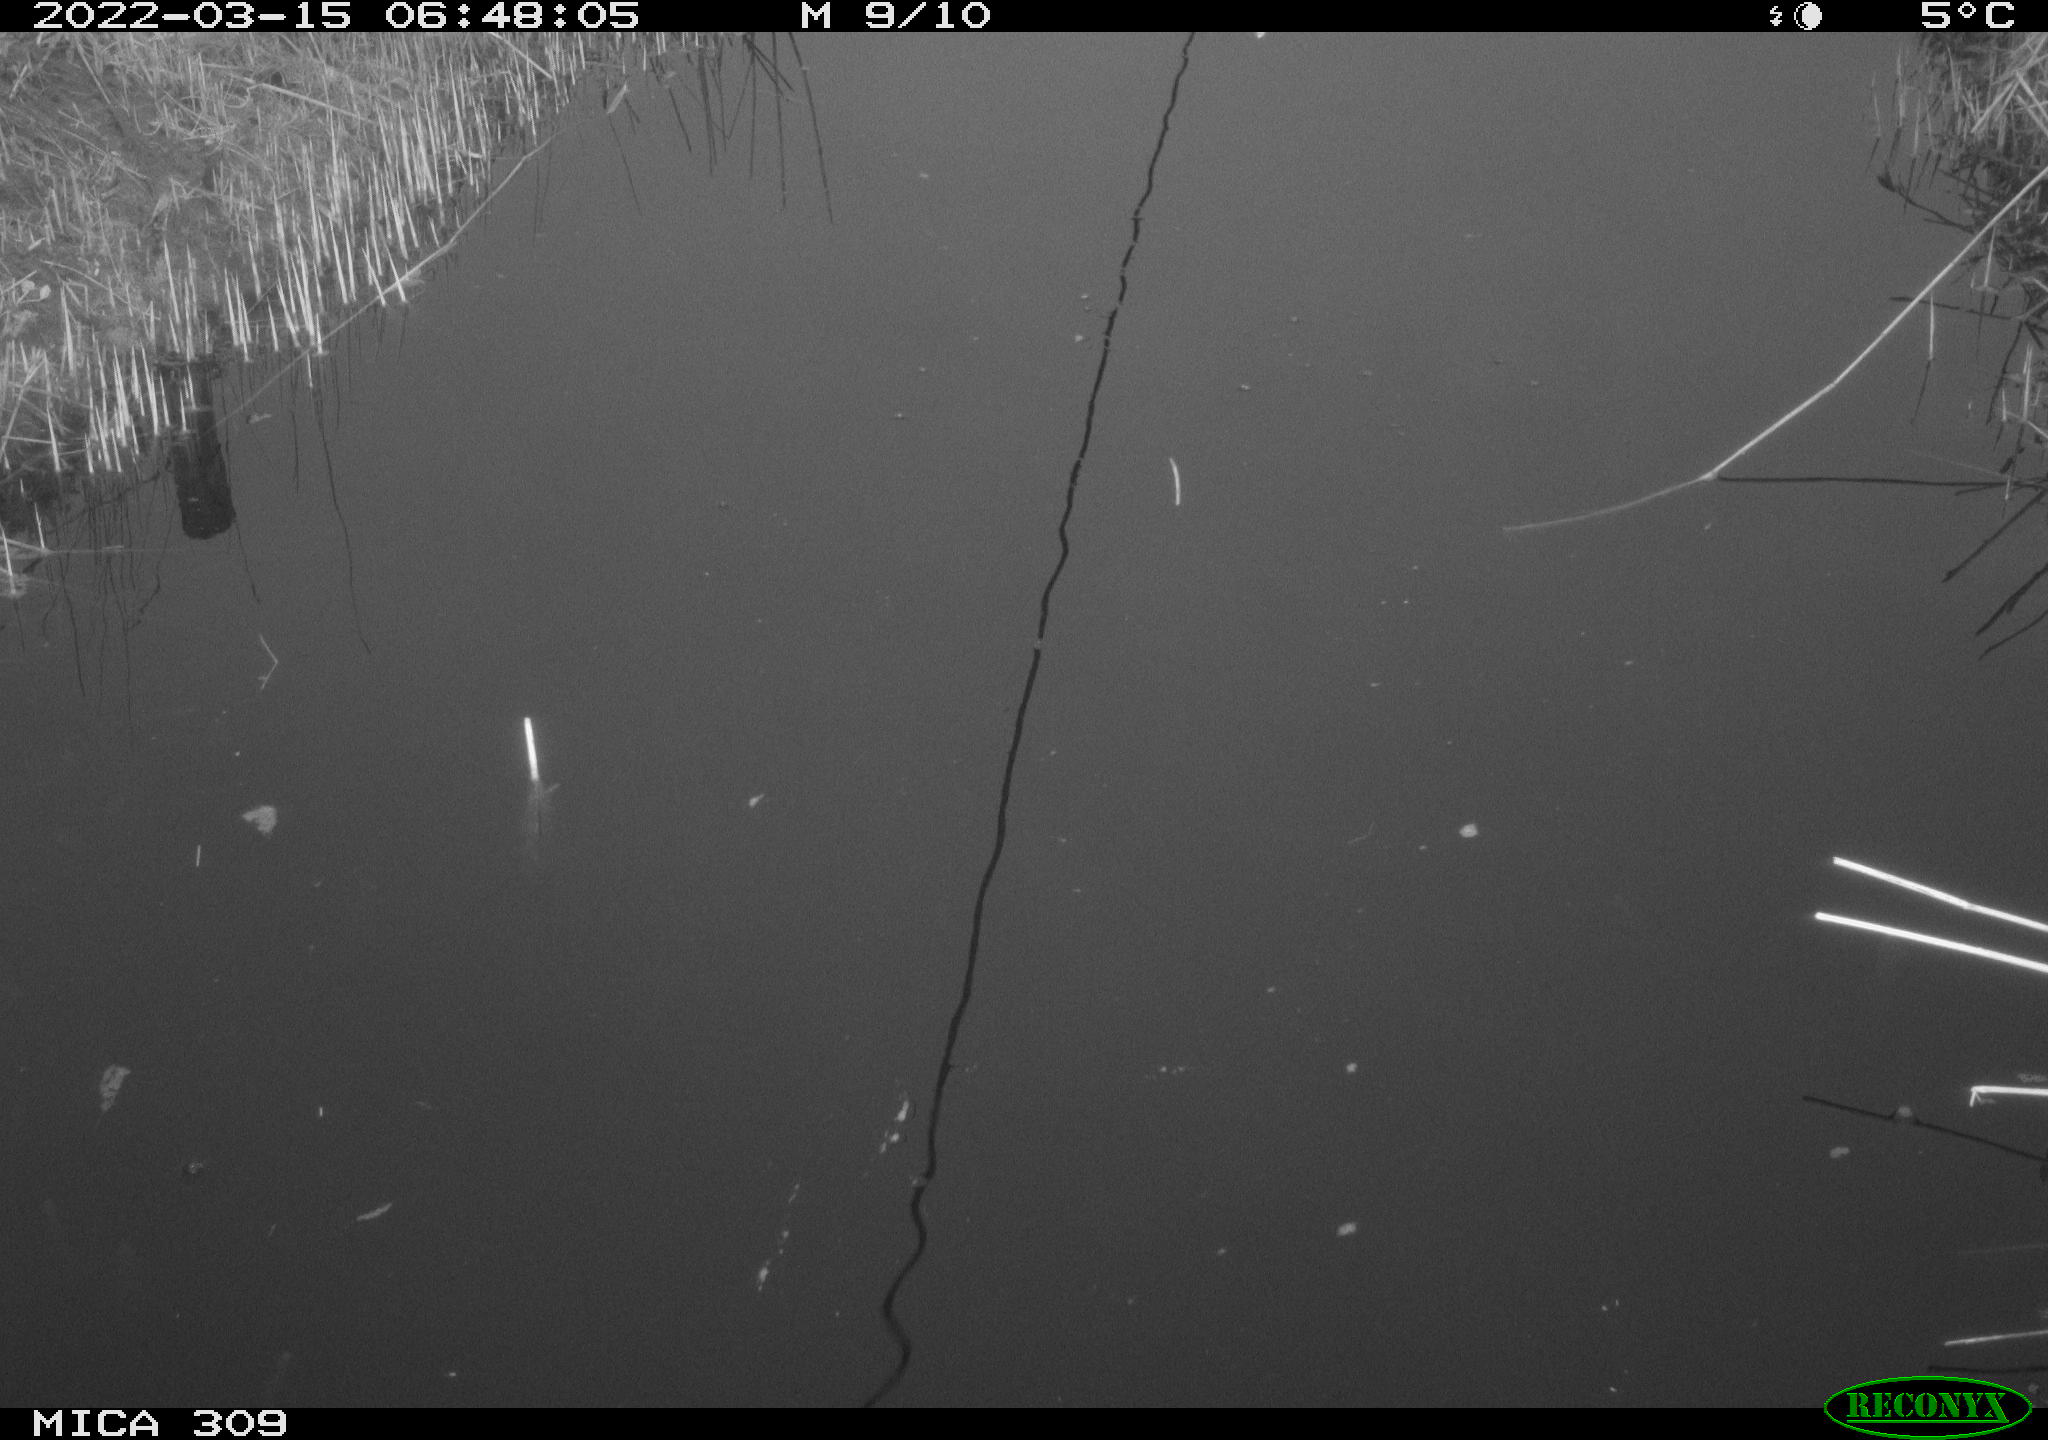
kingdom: Animalia
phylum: Chordata
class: Aves
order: Gruiformes
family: Rallidae
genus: Gallinula
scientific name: Gallinula chloropus
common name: Common moorhen
